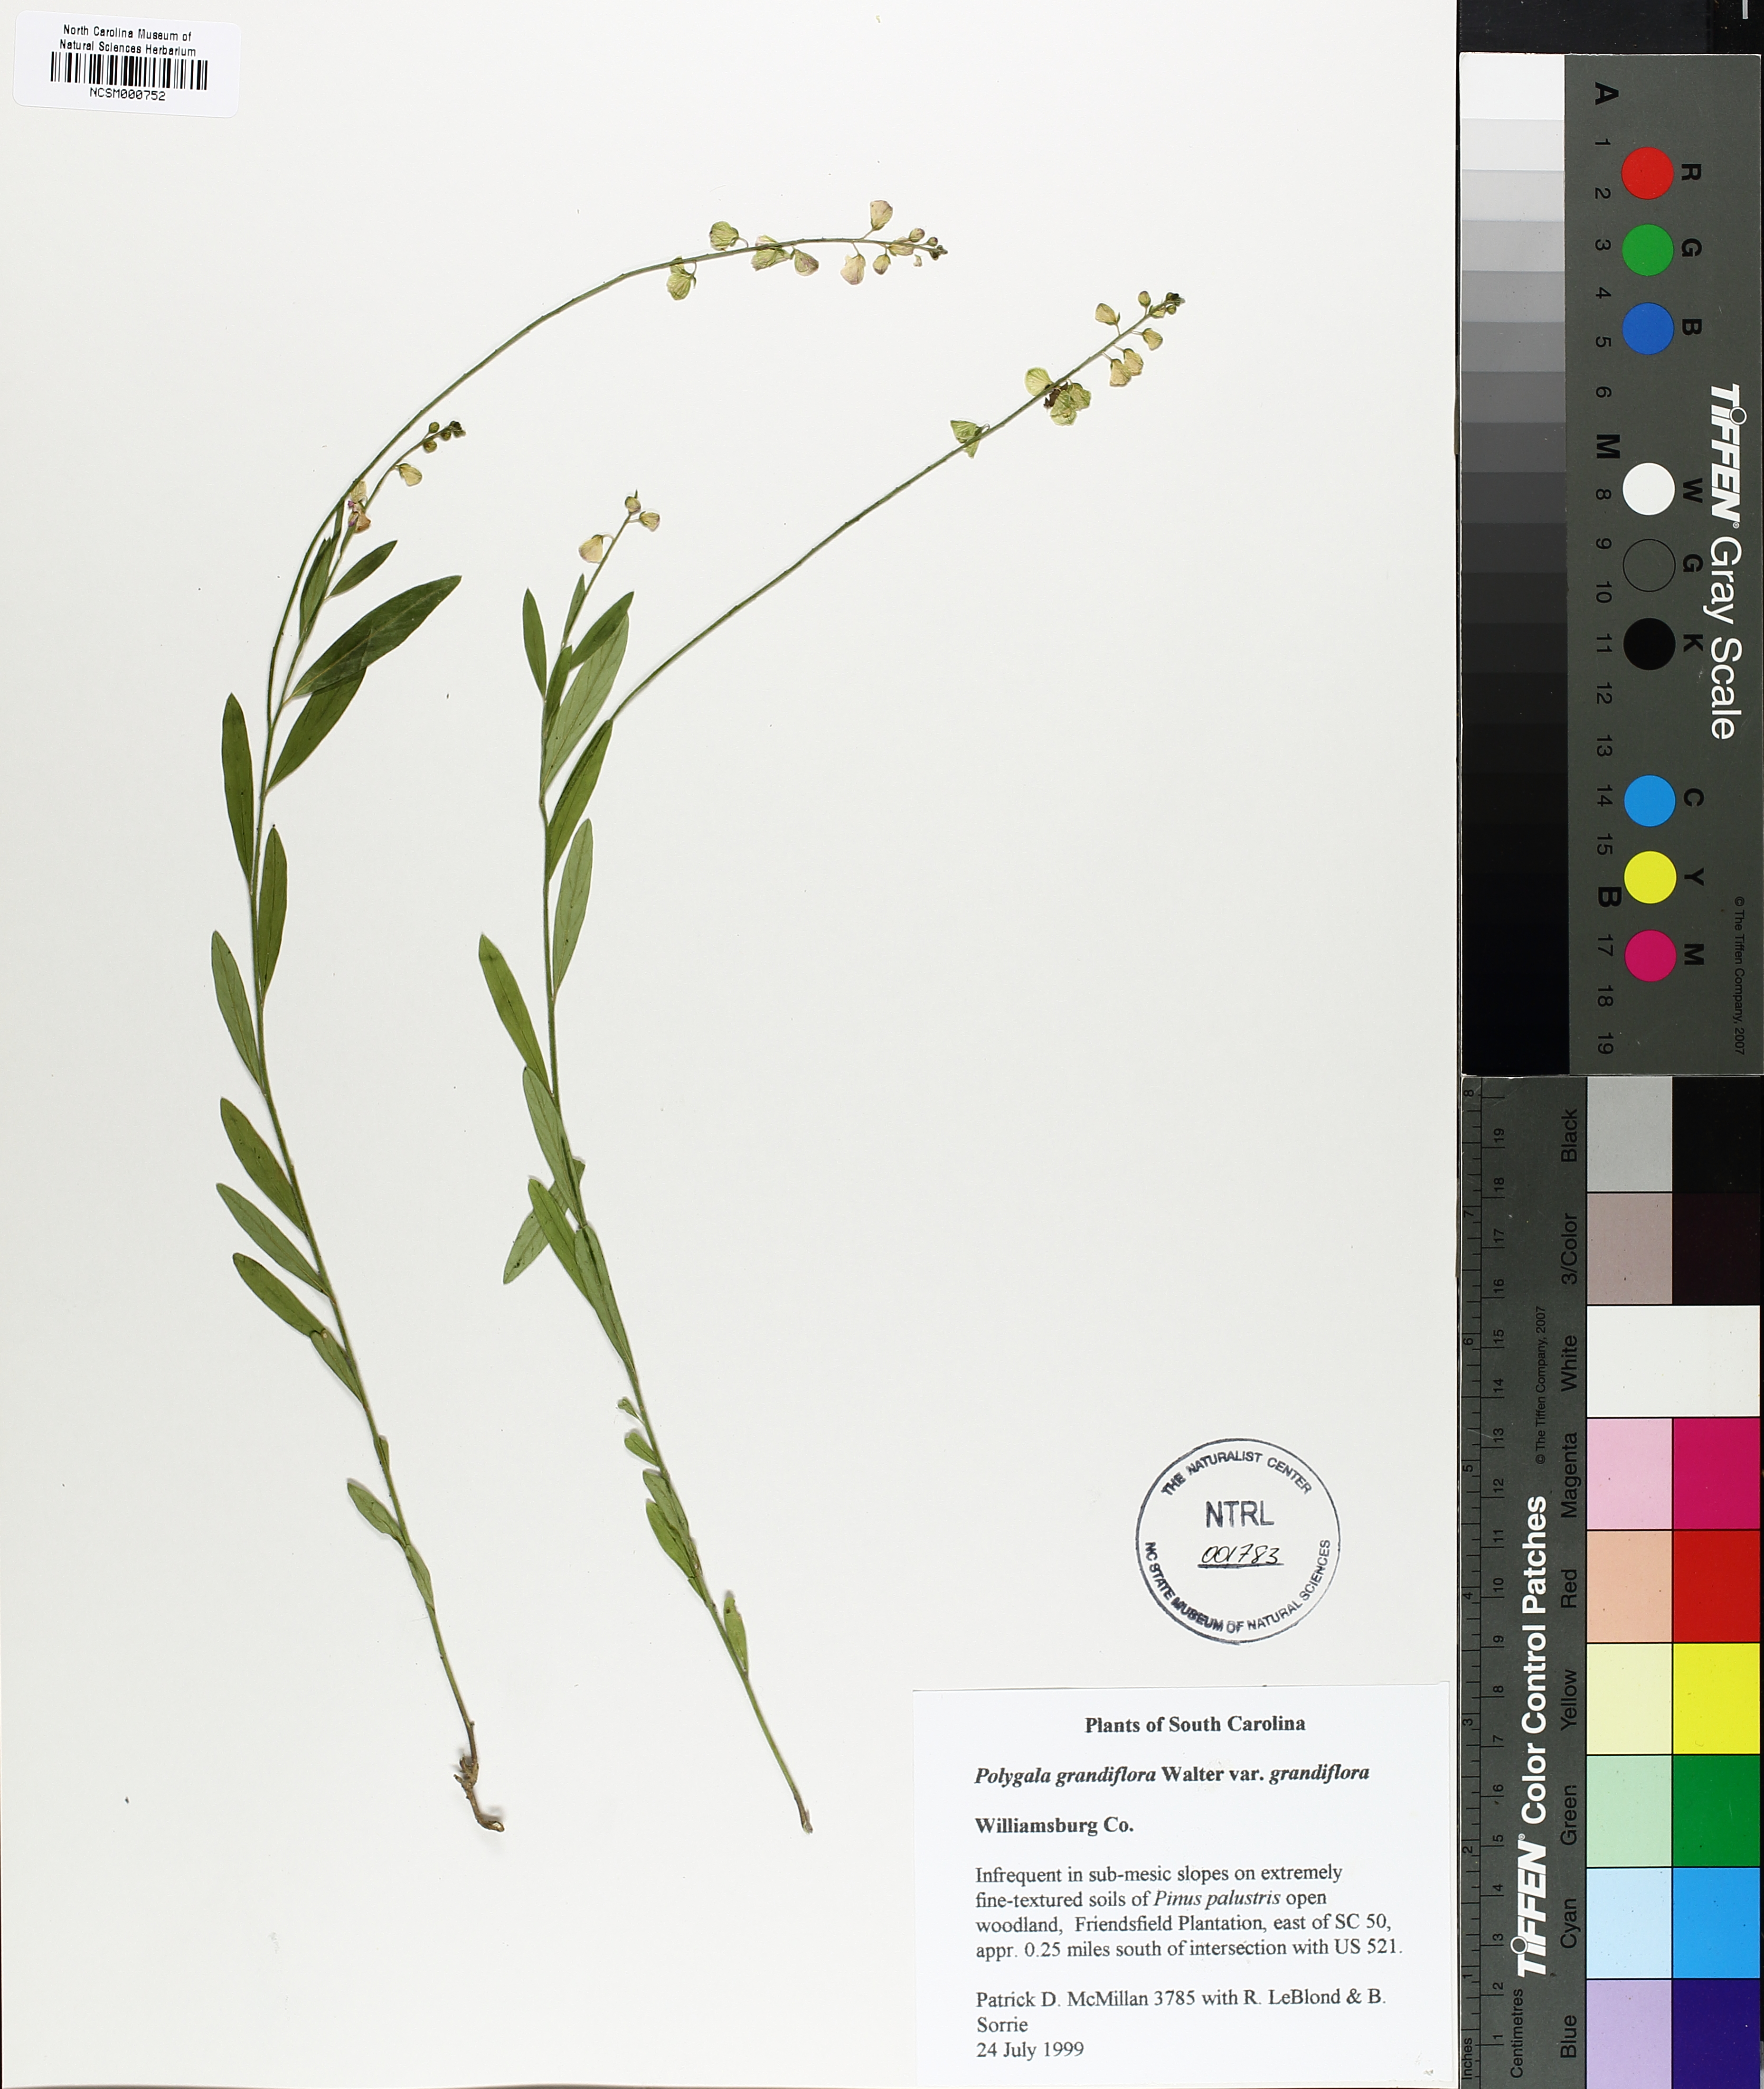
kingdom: Plantae
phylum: Tracheophyta
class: Magnoliopsida
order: Fabales
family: Polygalaceae
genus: Asemeia
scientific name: Asemeia grandiflora
